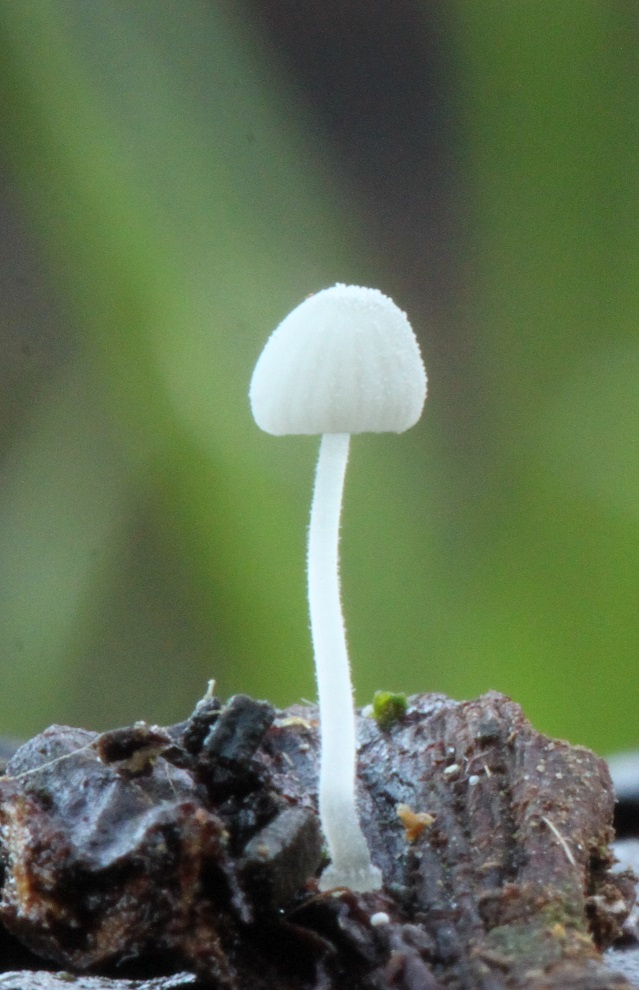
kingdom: Fungi
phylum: Basidiomycota
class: Agaricomycetes
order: Agaricales
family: Mycenaceae
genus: Mycena
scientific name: Mycena tenerrima
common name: pudret huesvamp
